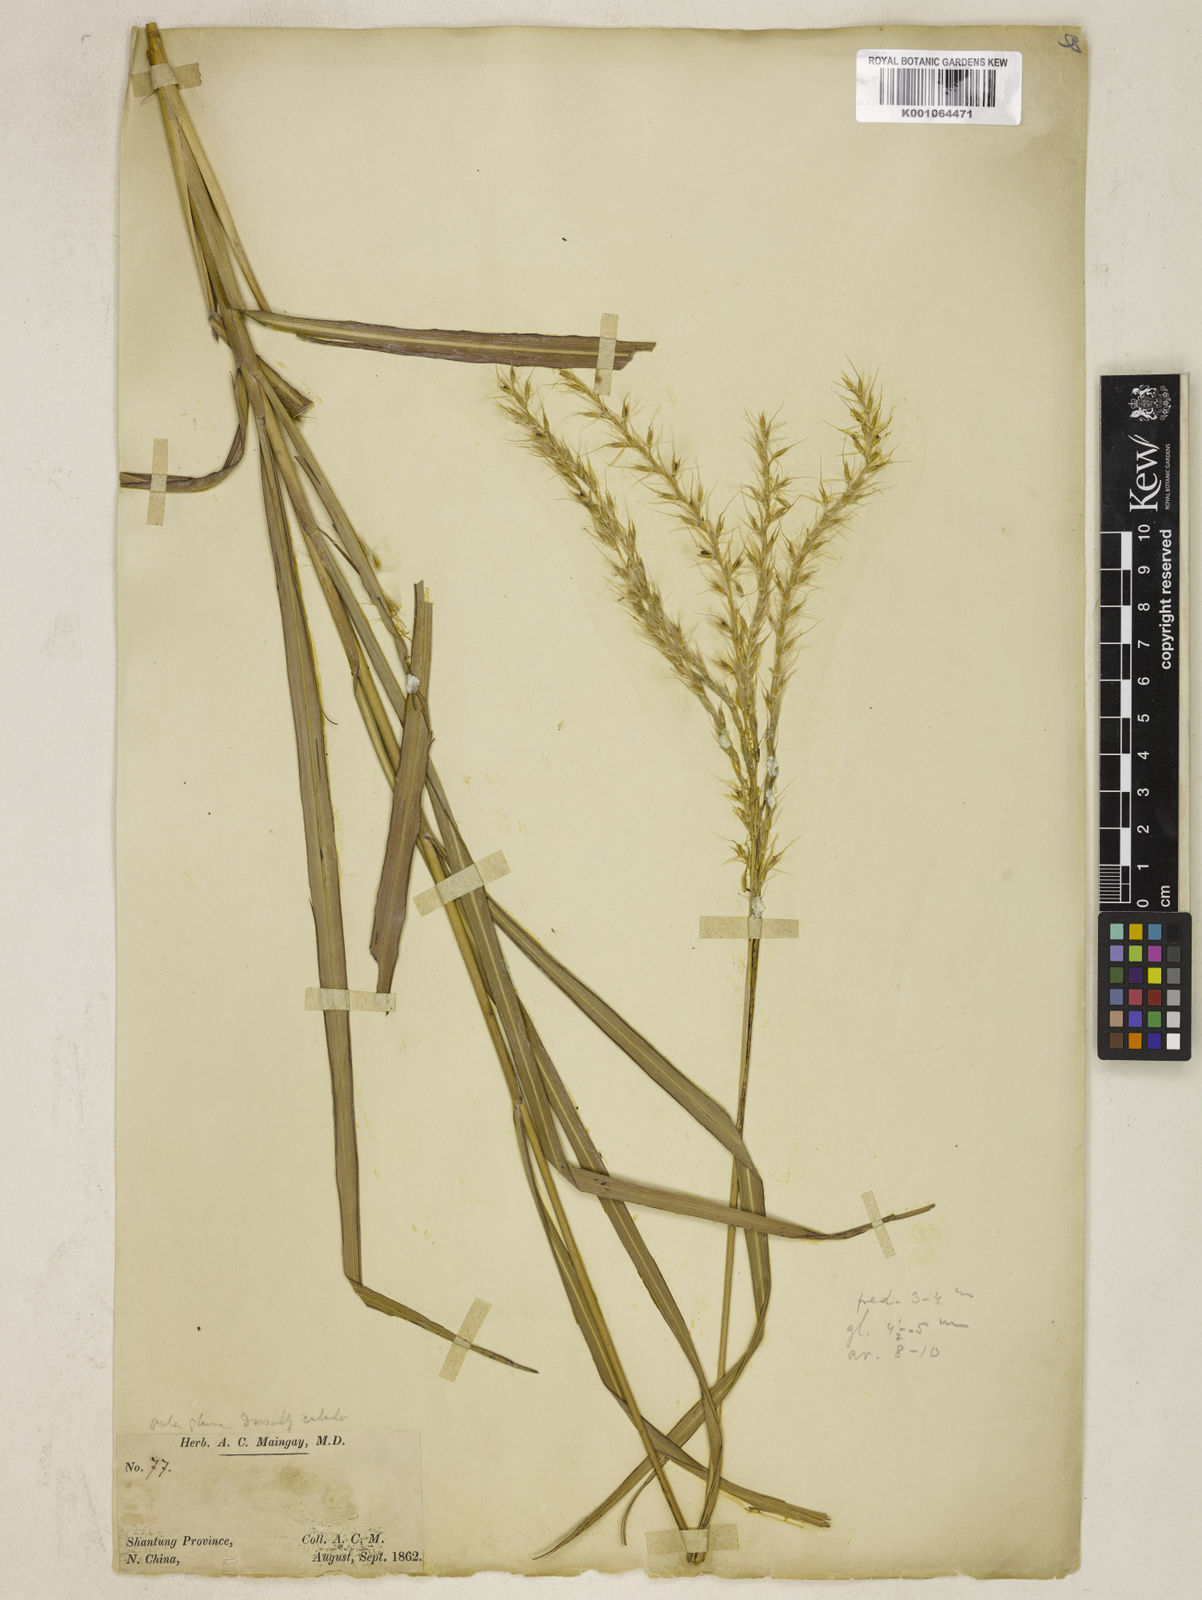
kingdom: Plantae
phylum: Tracheophyta
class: Liliopsida
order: Poales
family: Poaceae
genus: Miscanthus
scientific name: Miscanthus sinensis
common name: Chinese silvergrass
